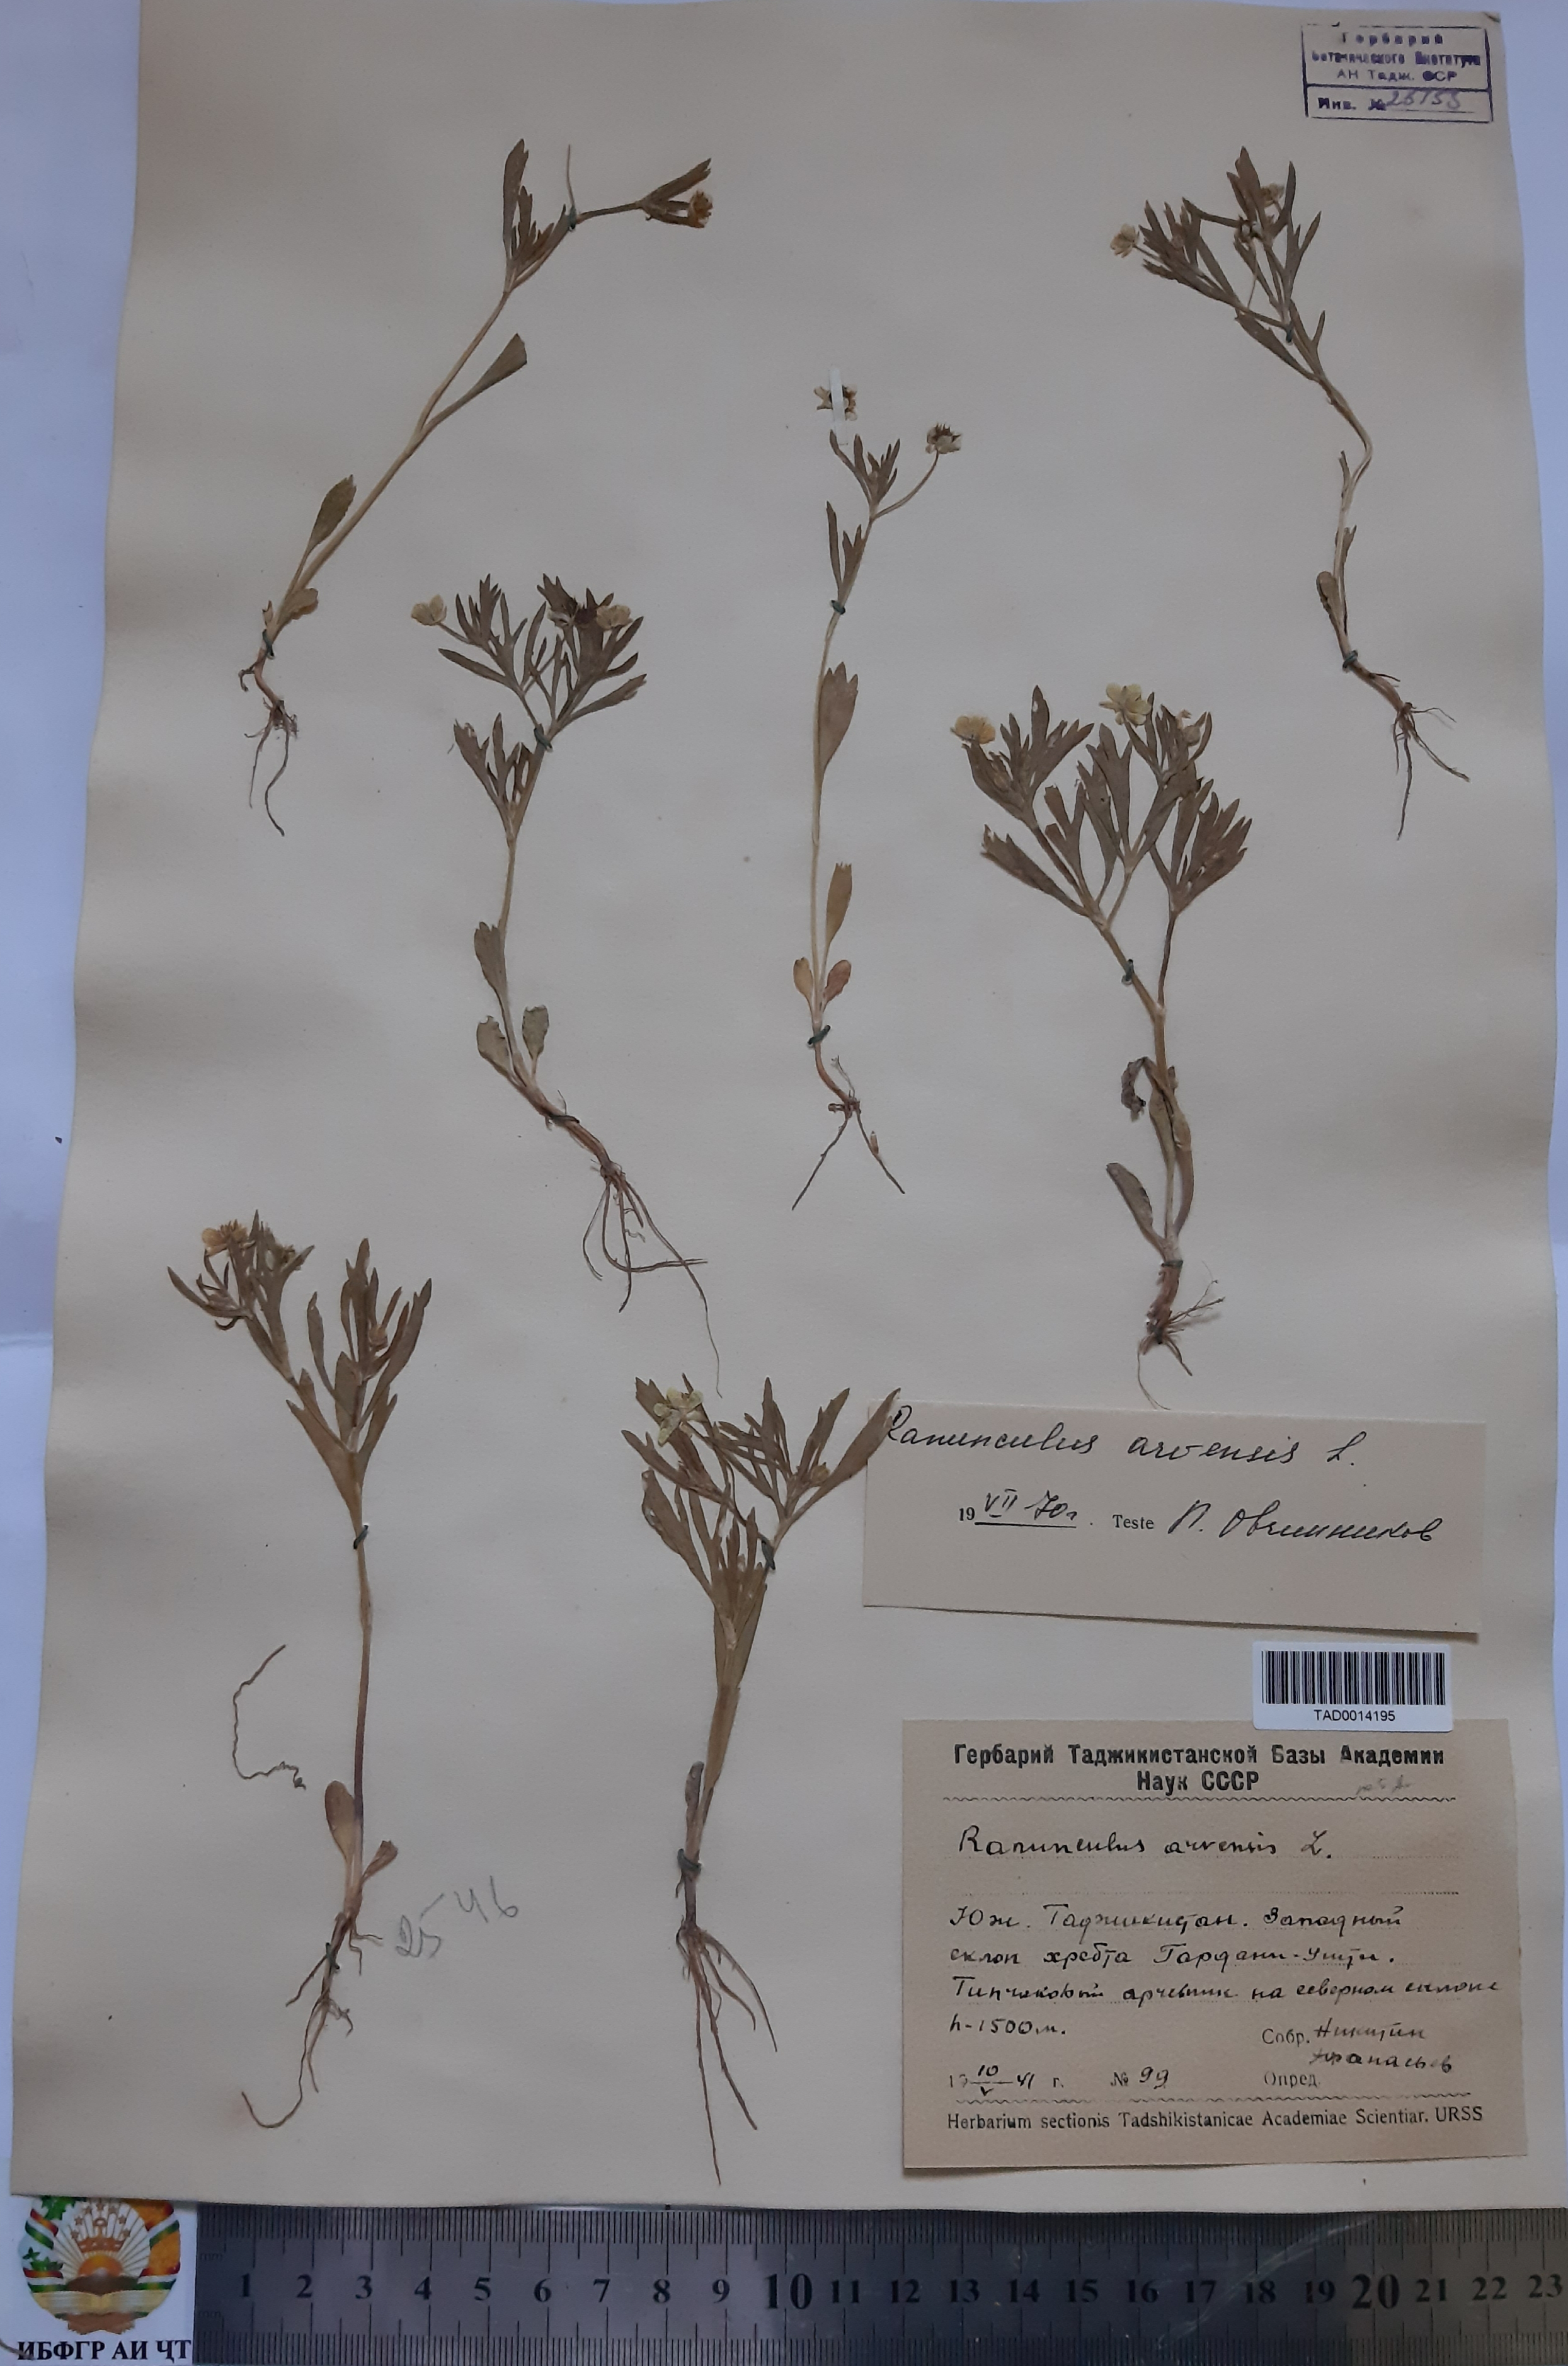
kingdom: Plantae
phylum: Tracheophyta
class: Magnoliopsida
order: Ranunculales
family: Ranunculaceae
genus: Ranunculus
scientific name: Ranunculus arvensis
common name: Corn buttercup
